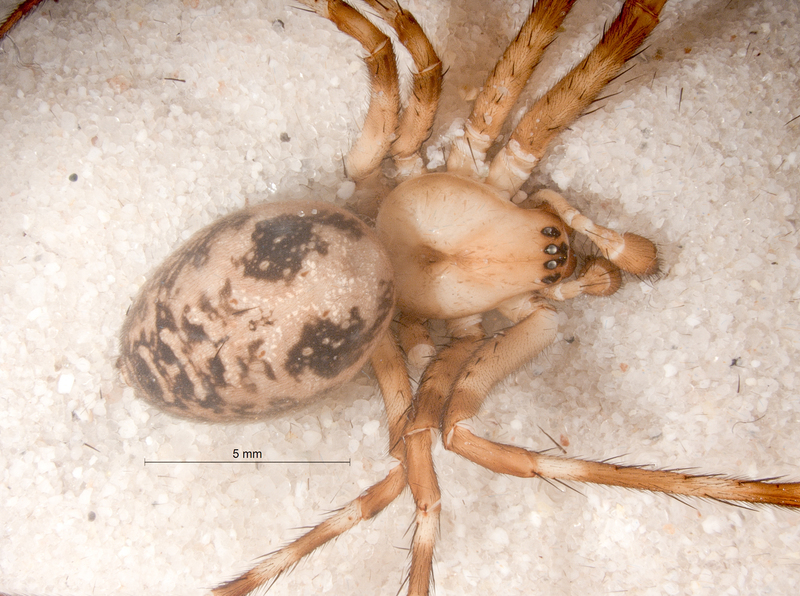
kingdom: Animalia
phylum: Arthropoda
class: Arachnida
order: Araneae
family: Tetragnathidae
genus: Meta
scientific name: Meta menardi
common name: Cave spider
